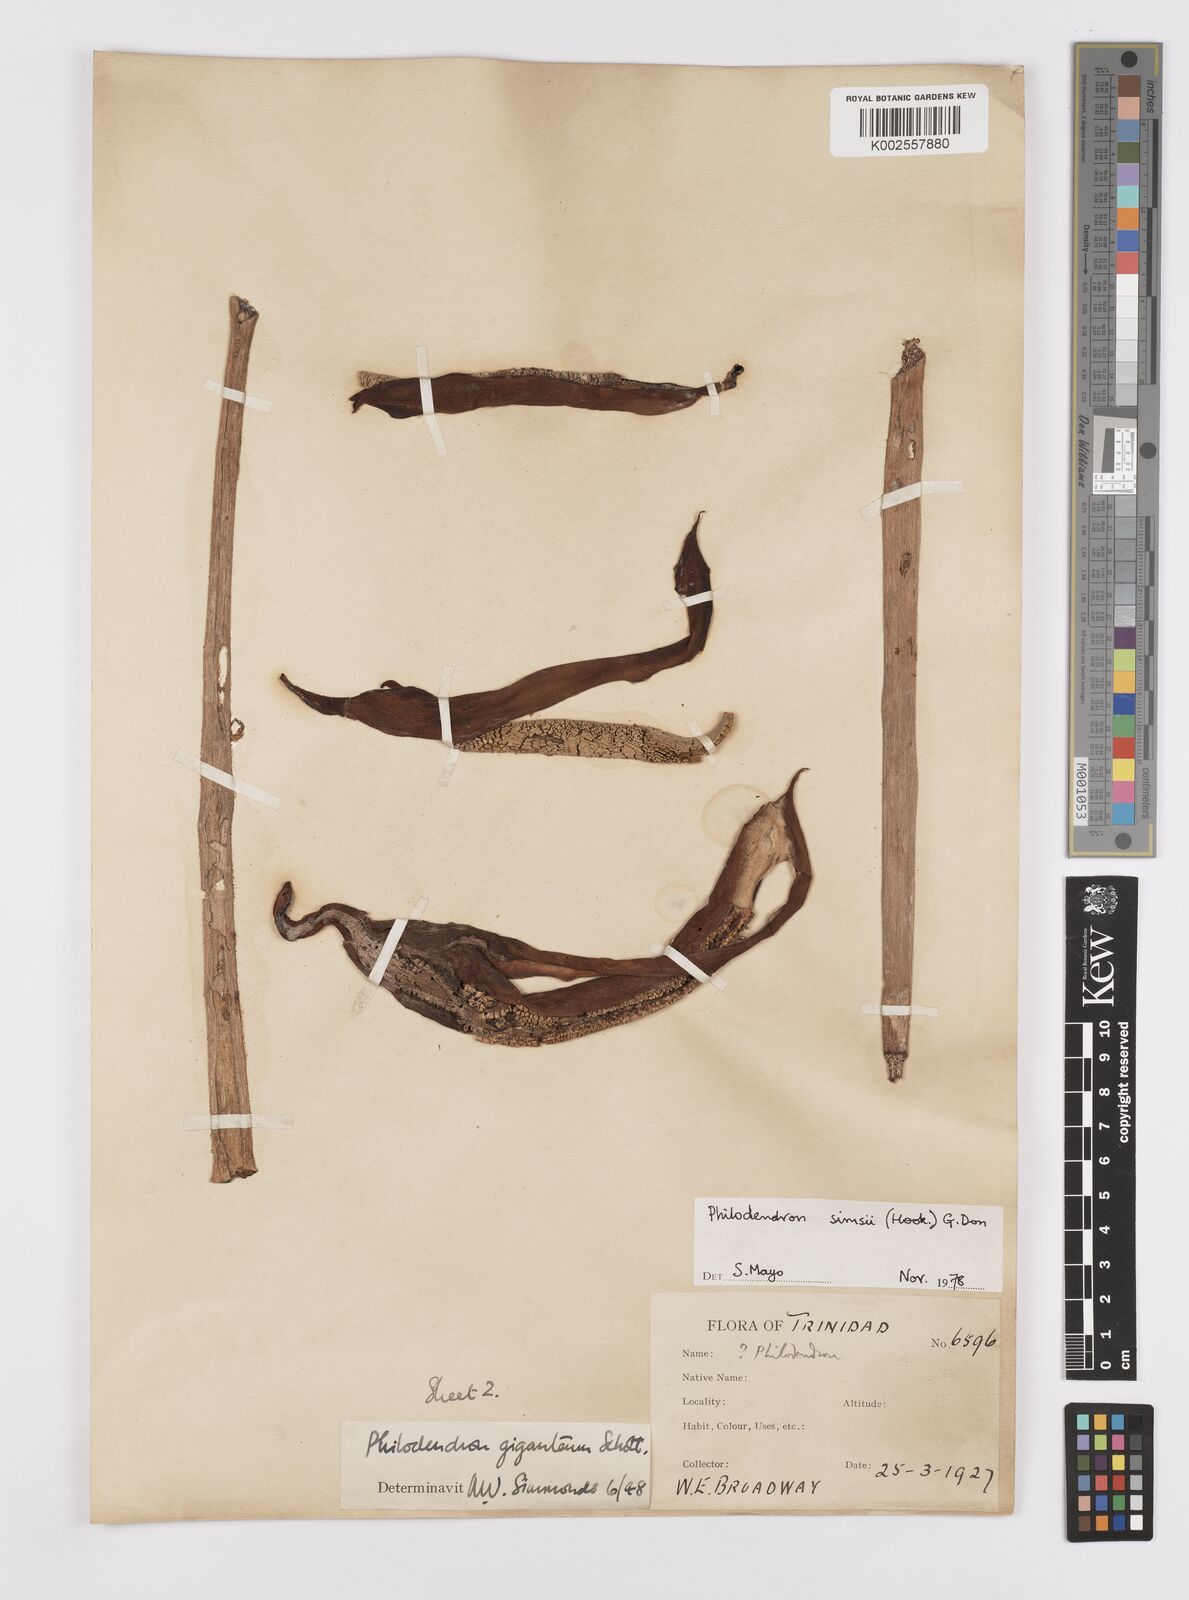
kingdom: Plantae
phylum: Tracheophyta
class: Liliopsida
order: Alismatales
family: Araceae
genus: Philodendron
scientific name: Philodendron
